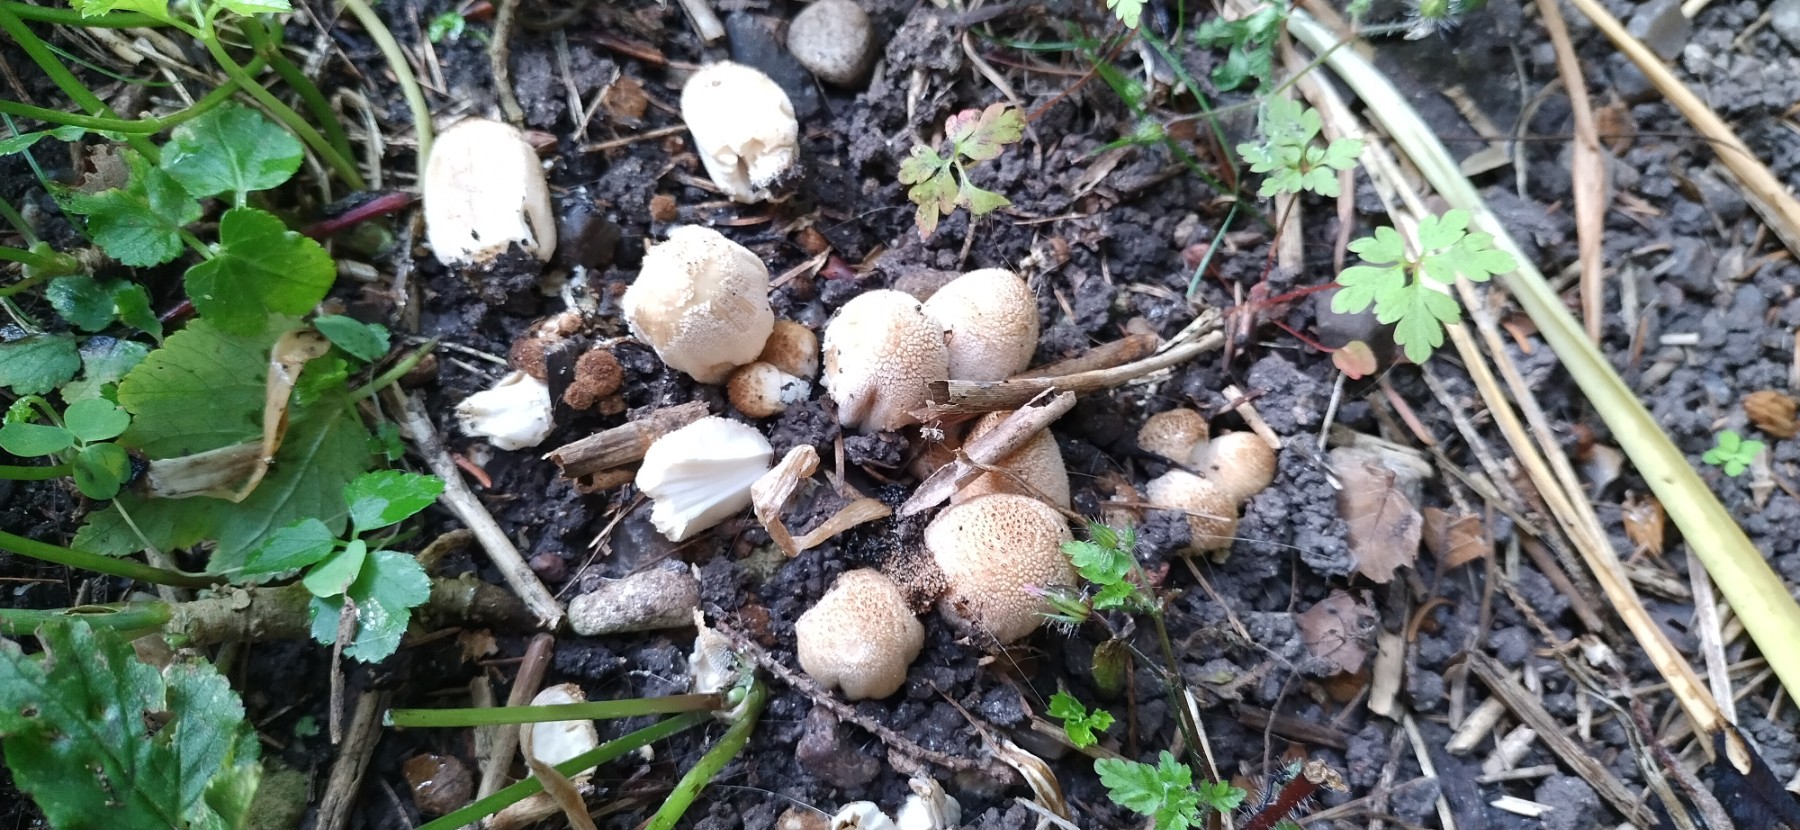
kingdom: Fungi
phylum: Basidiomycota
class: Agaricomycetes
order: Agaricales
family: Psathyrellaceae
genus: Coprinellus
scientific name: Coprinellus
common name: blækhat
